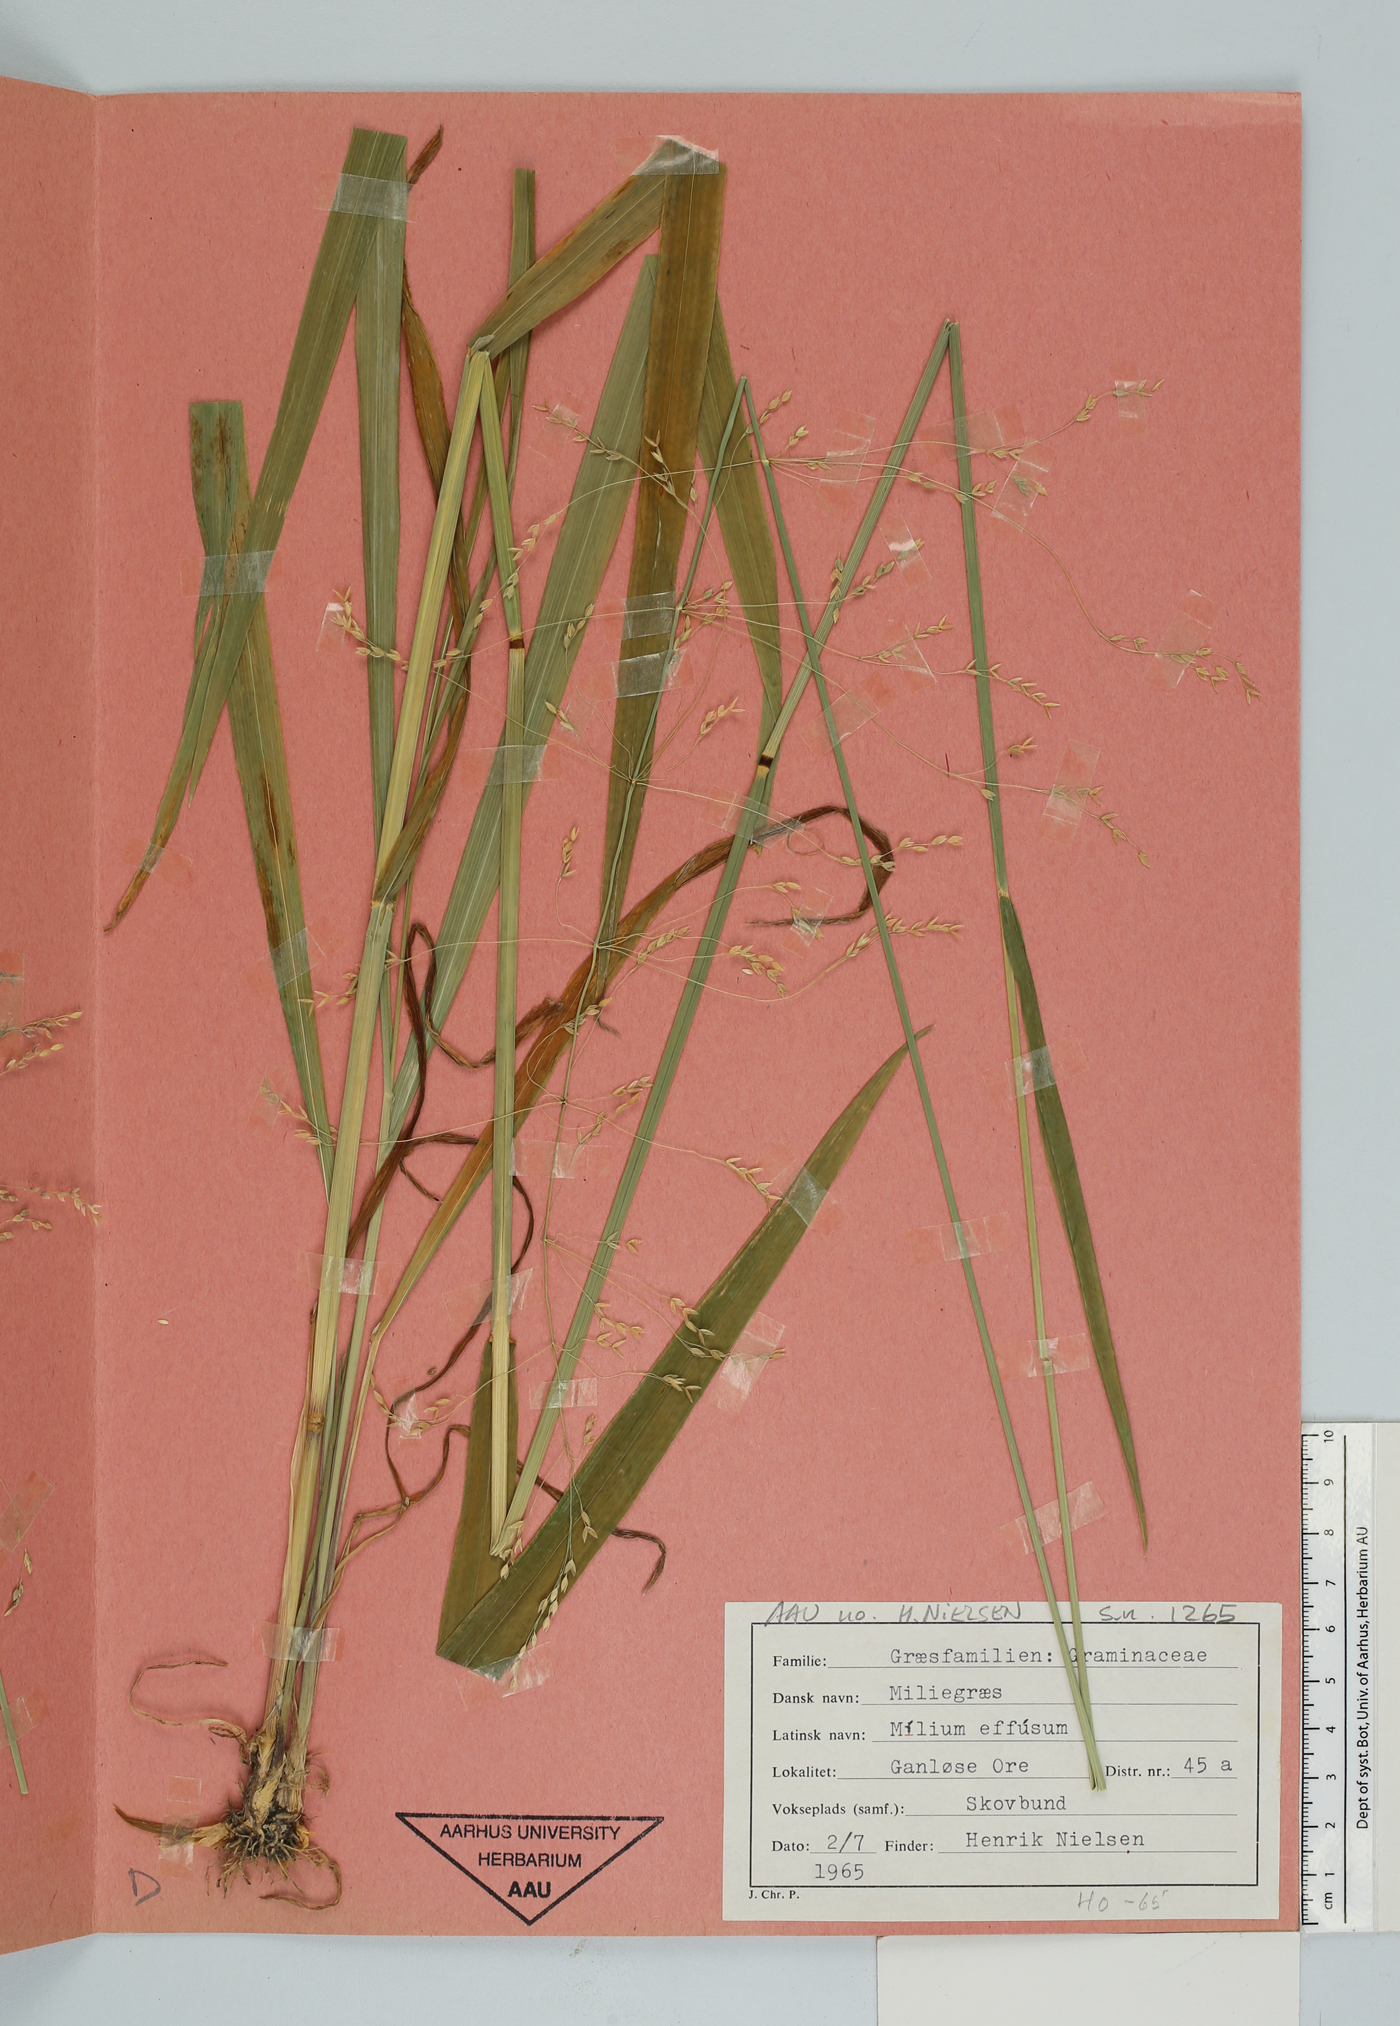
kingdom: Plantae
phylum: Tracheophyta
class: Liliopsida
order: Poales
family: Poaceae
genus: Milium
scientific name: Milium effusum
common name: Wood millet
